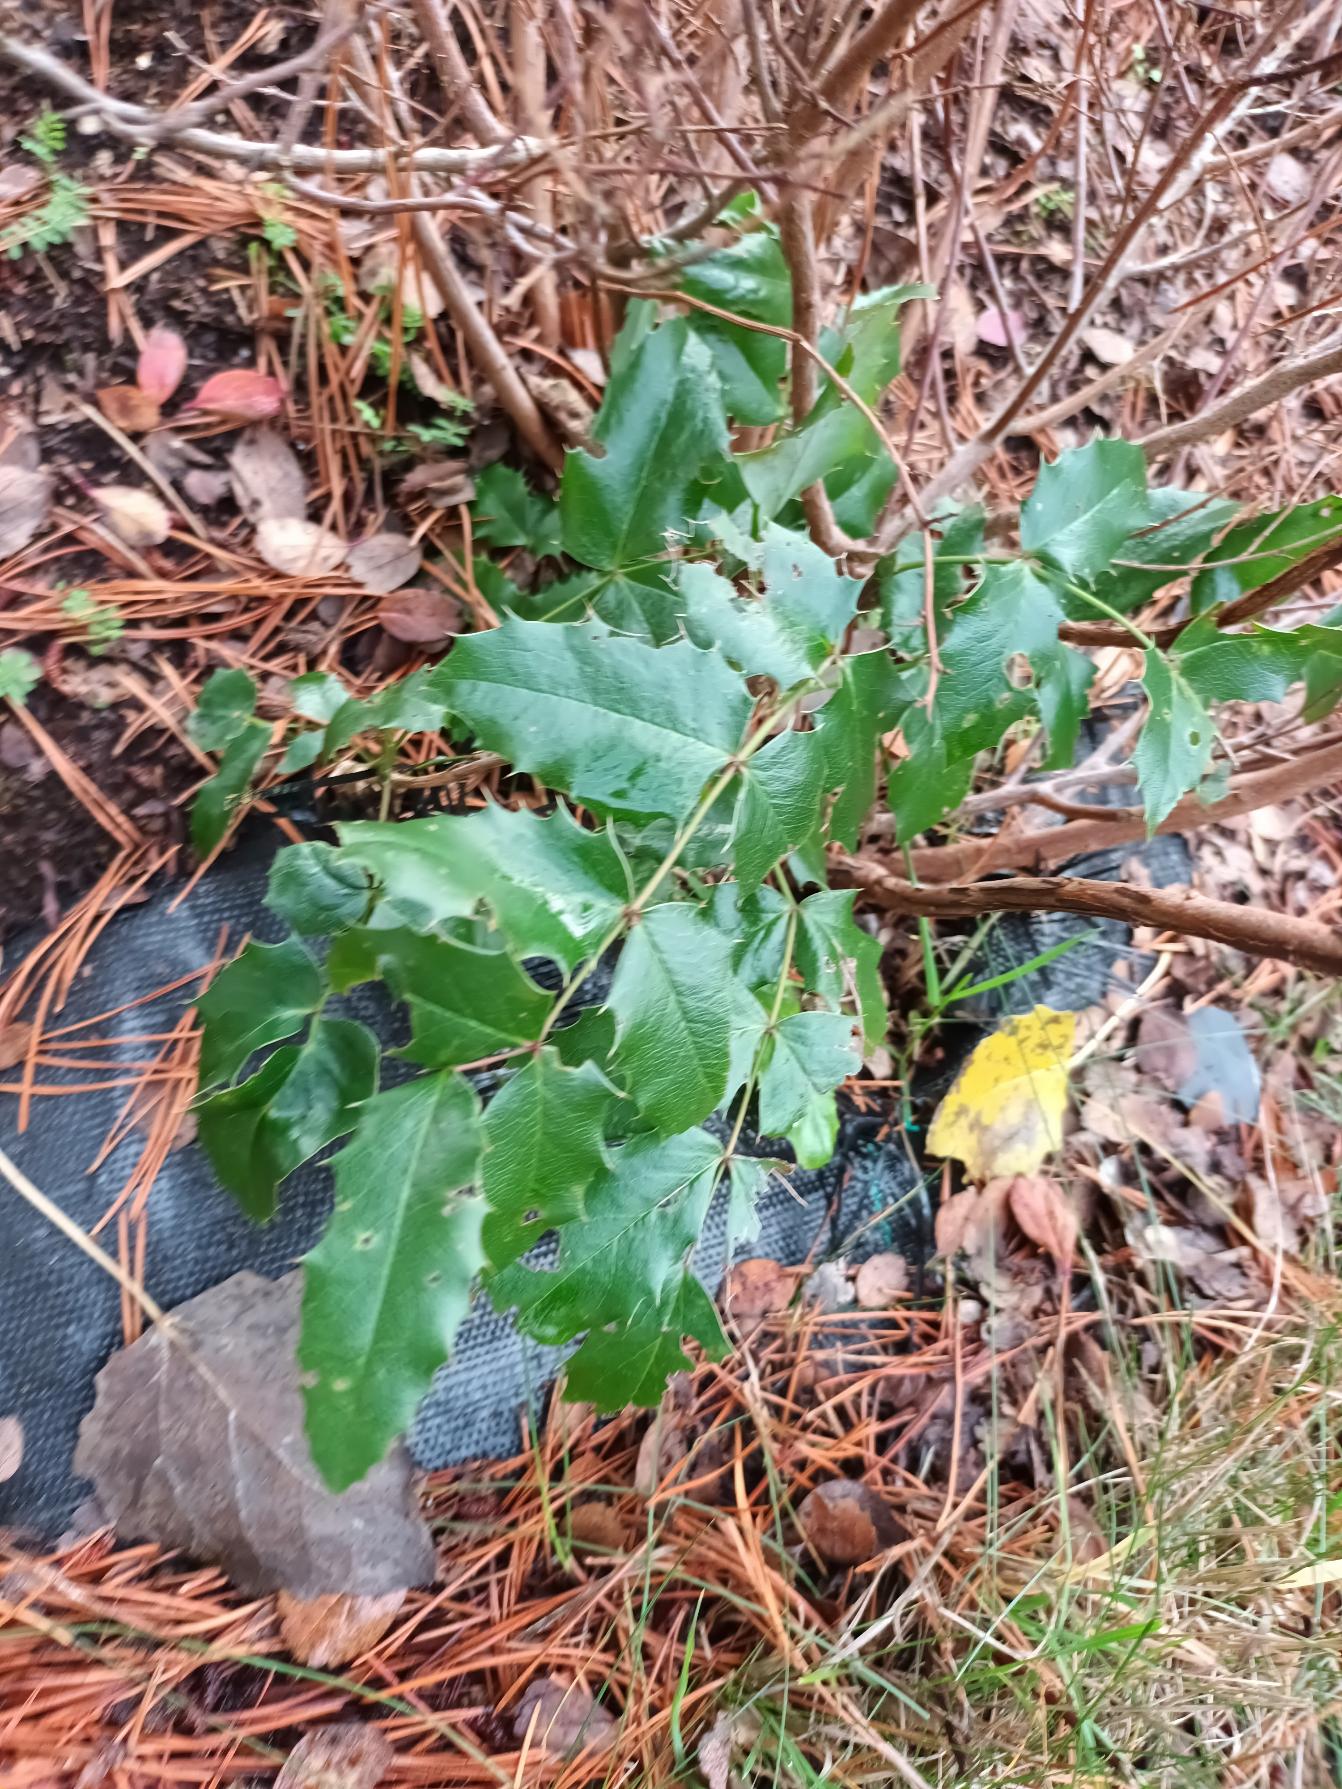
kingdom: Plantae
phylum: Tracheophyta
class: Magnoliopsida
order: Ranunculales
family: Berberidaceae
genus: Mahonia
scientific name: Mahonia aquifolium
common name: Almindelig mahonie
